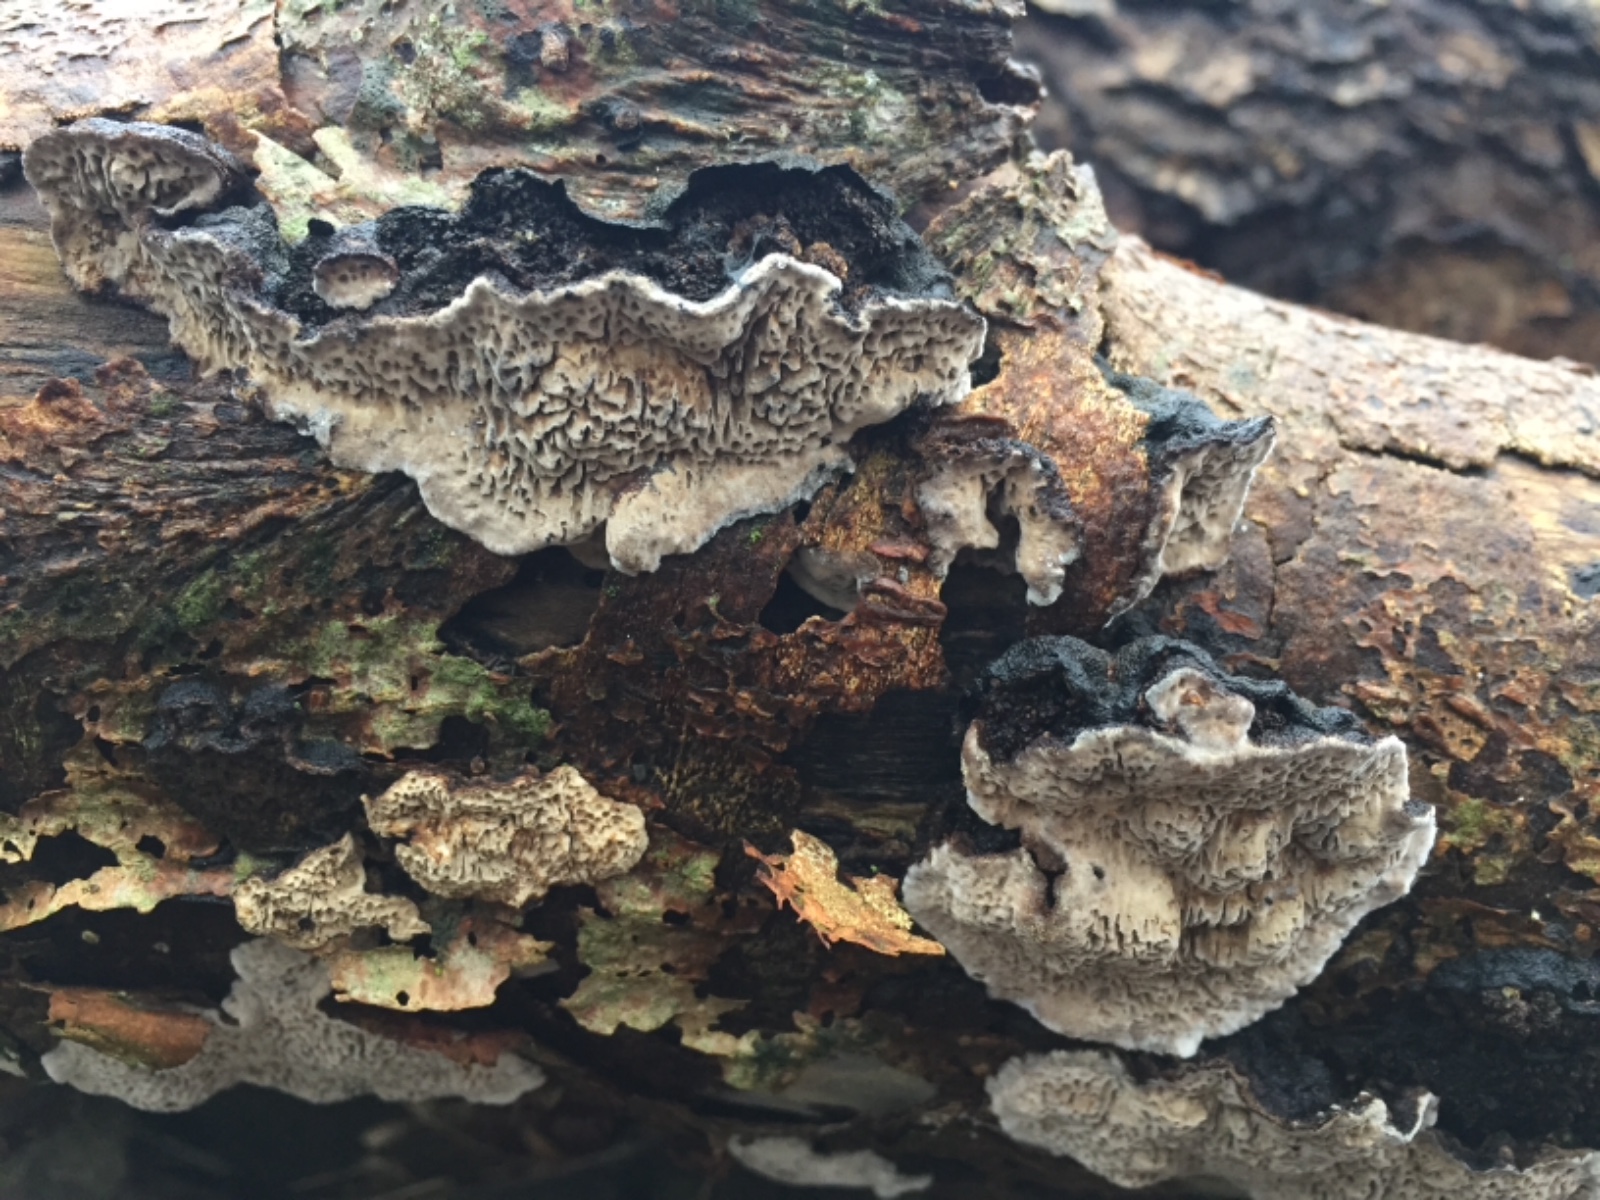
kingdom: Fungi
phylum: Basidiomycota
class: Agaricomycetes
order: Polyporales
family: Polyporaceae
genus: Podofomes
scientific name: Podofomes mollis
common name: blød begporesvamp
